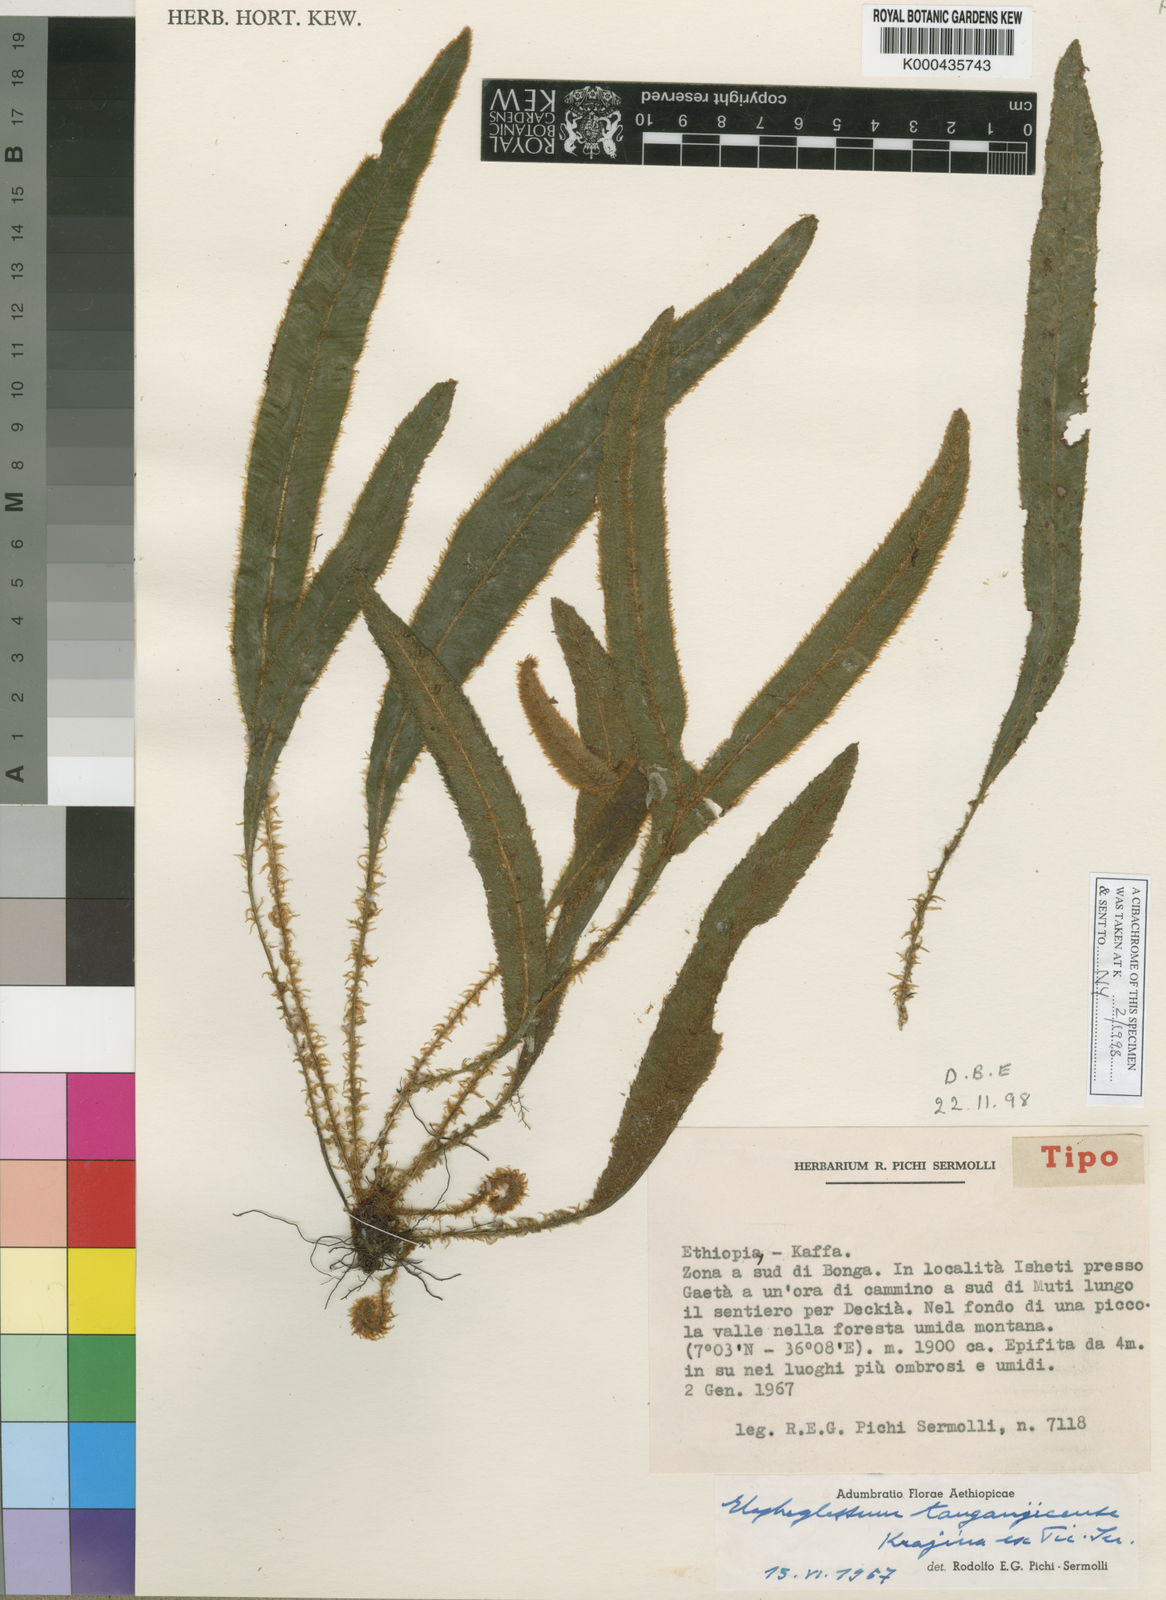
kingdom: Plantae
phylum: Tracheophyta
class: Polypodiopsida
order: Polypodiales
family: Dryopteridaceae
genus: Elaphoglossum
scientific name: Elaphoglossum deckenii
